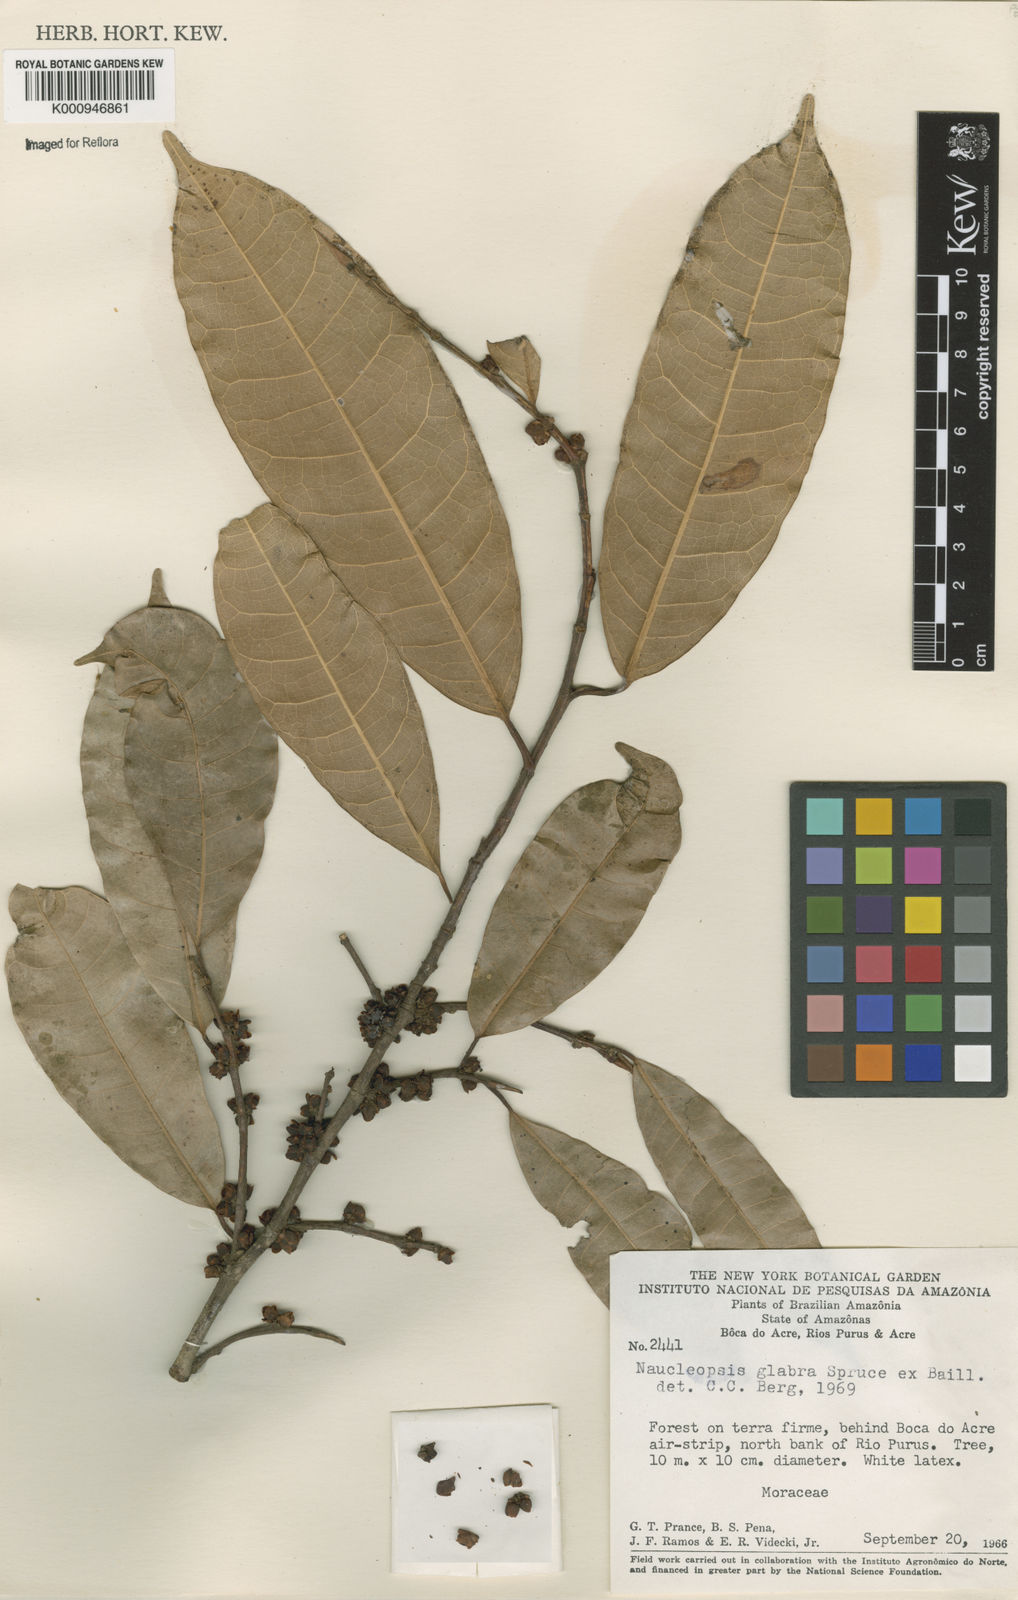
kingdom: Plantae
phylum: Tracheophyta
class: Magnoliopsida
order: Rosales
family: Moraceae
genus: Naucleopsis
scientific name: Naucleopsis glabra
